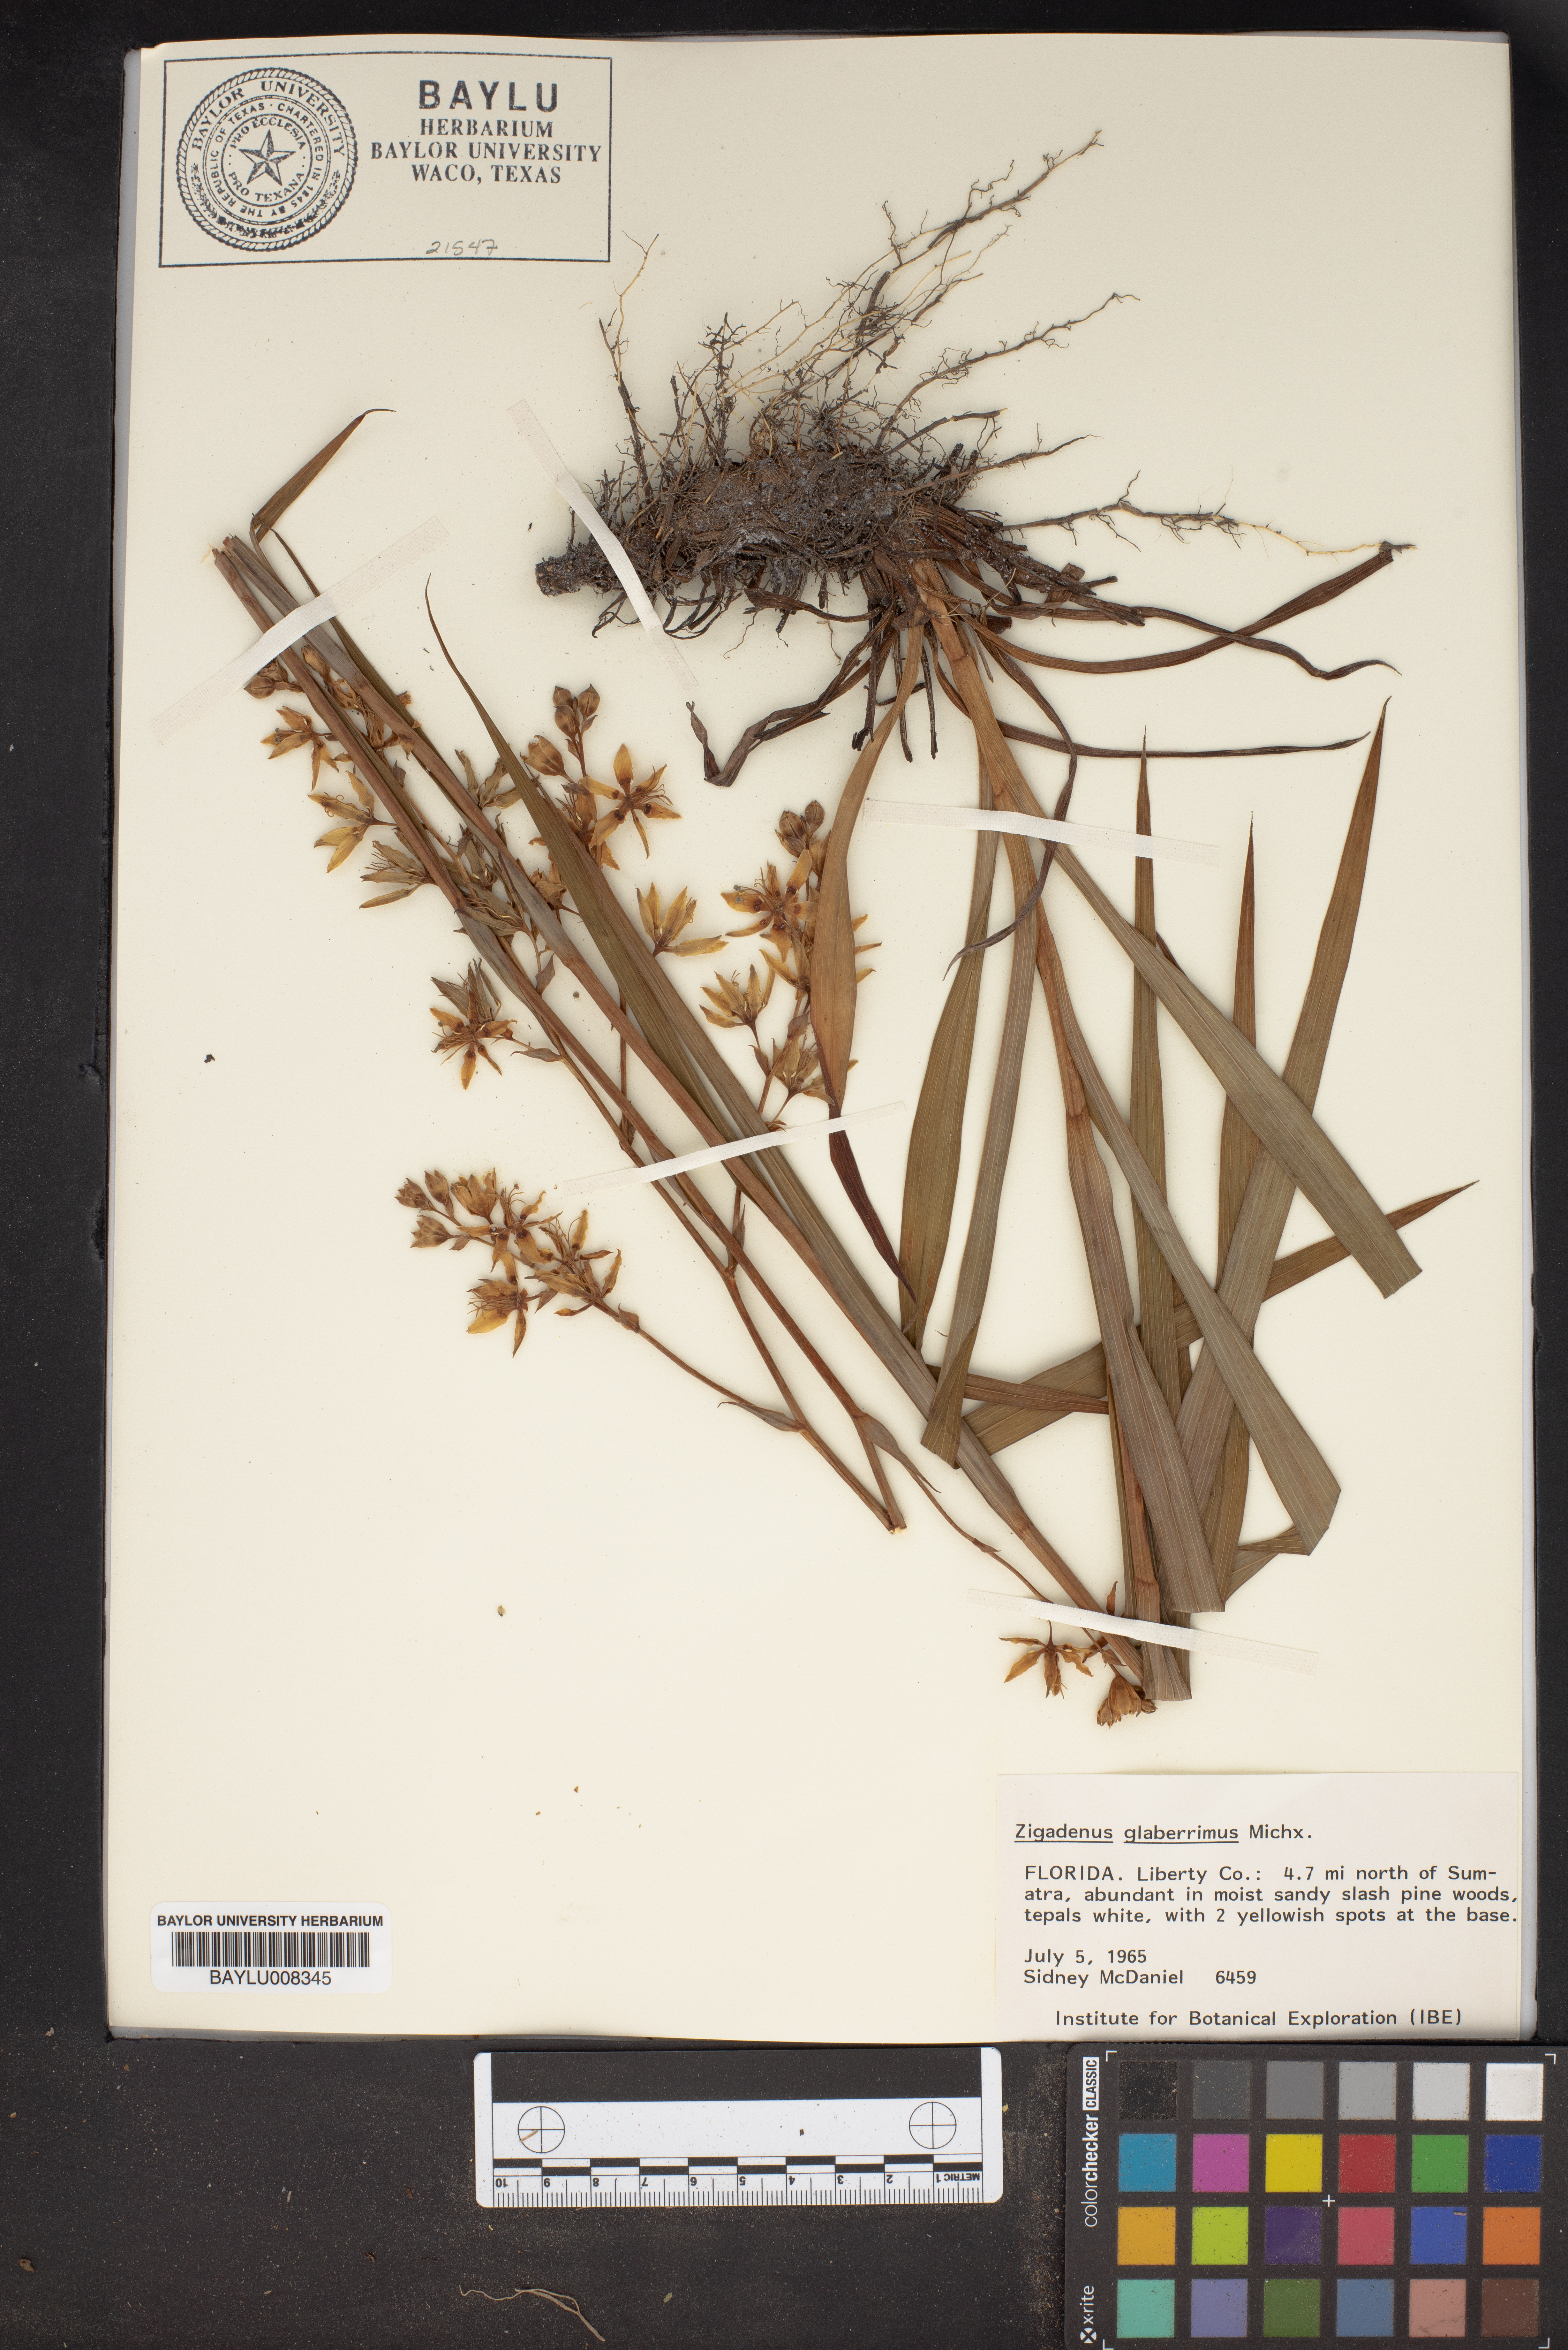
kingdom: Plantae
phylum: Tracheophyta
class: Liliopsida
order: Liliales
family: Melanthiaceae
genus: Zigadenus
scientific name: Zigadenus glaberrimus
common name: Sandbog death camas
